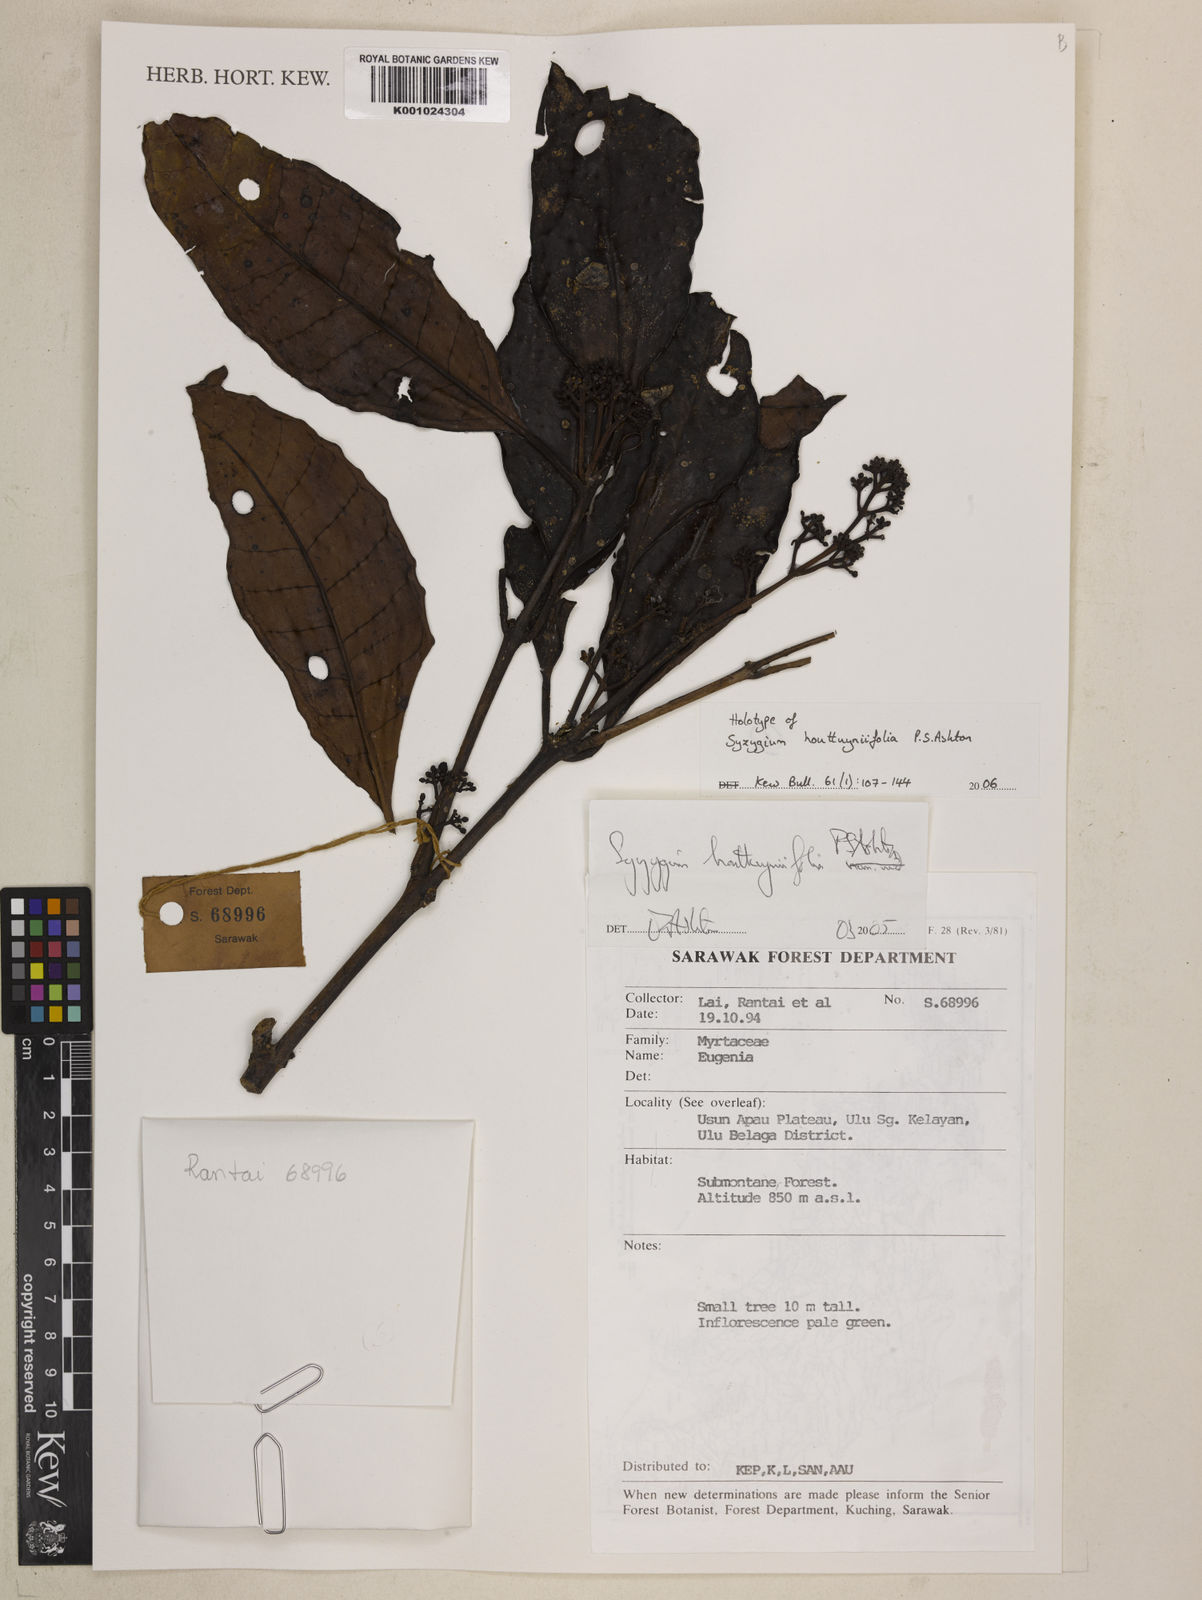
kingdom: Plantae
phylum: Tracheophyta
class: Magnoliopsida
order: Myrtales
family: Myrtaceae
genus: Syzygium
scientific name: Syzygium houttuyniifolia
